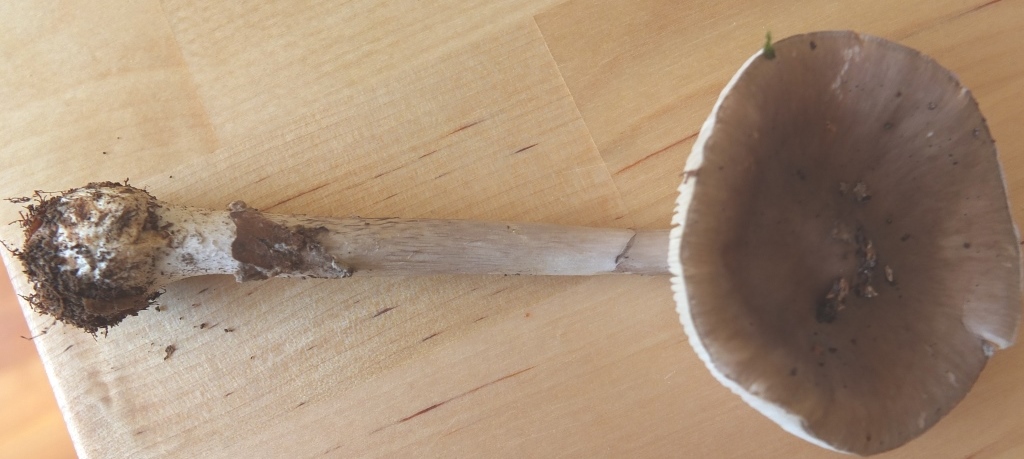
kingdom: Fungi
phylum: Basidiomycota
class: Agaricomycetes
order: Agaricales
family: Amanitaceae
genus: Amanita
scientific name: Amanita porphyria
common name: porfyr-fluesvamp
